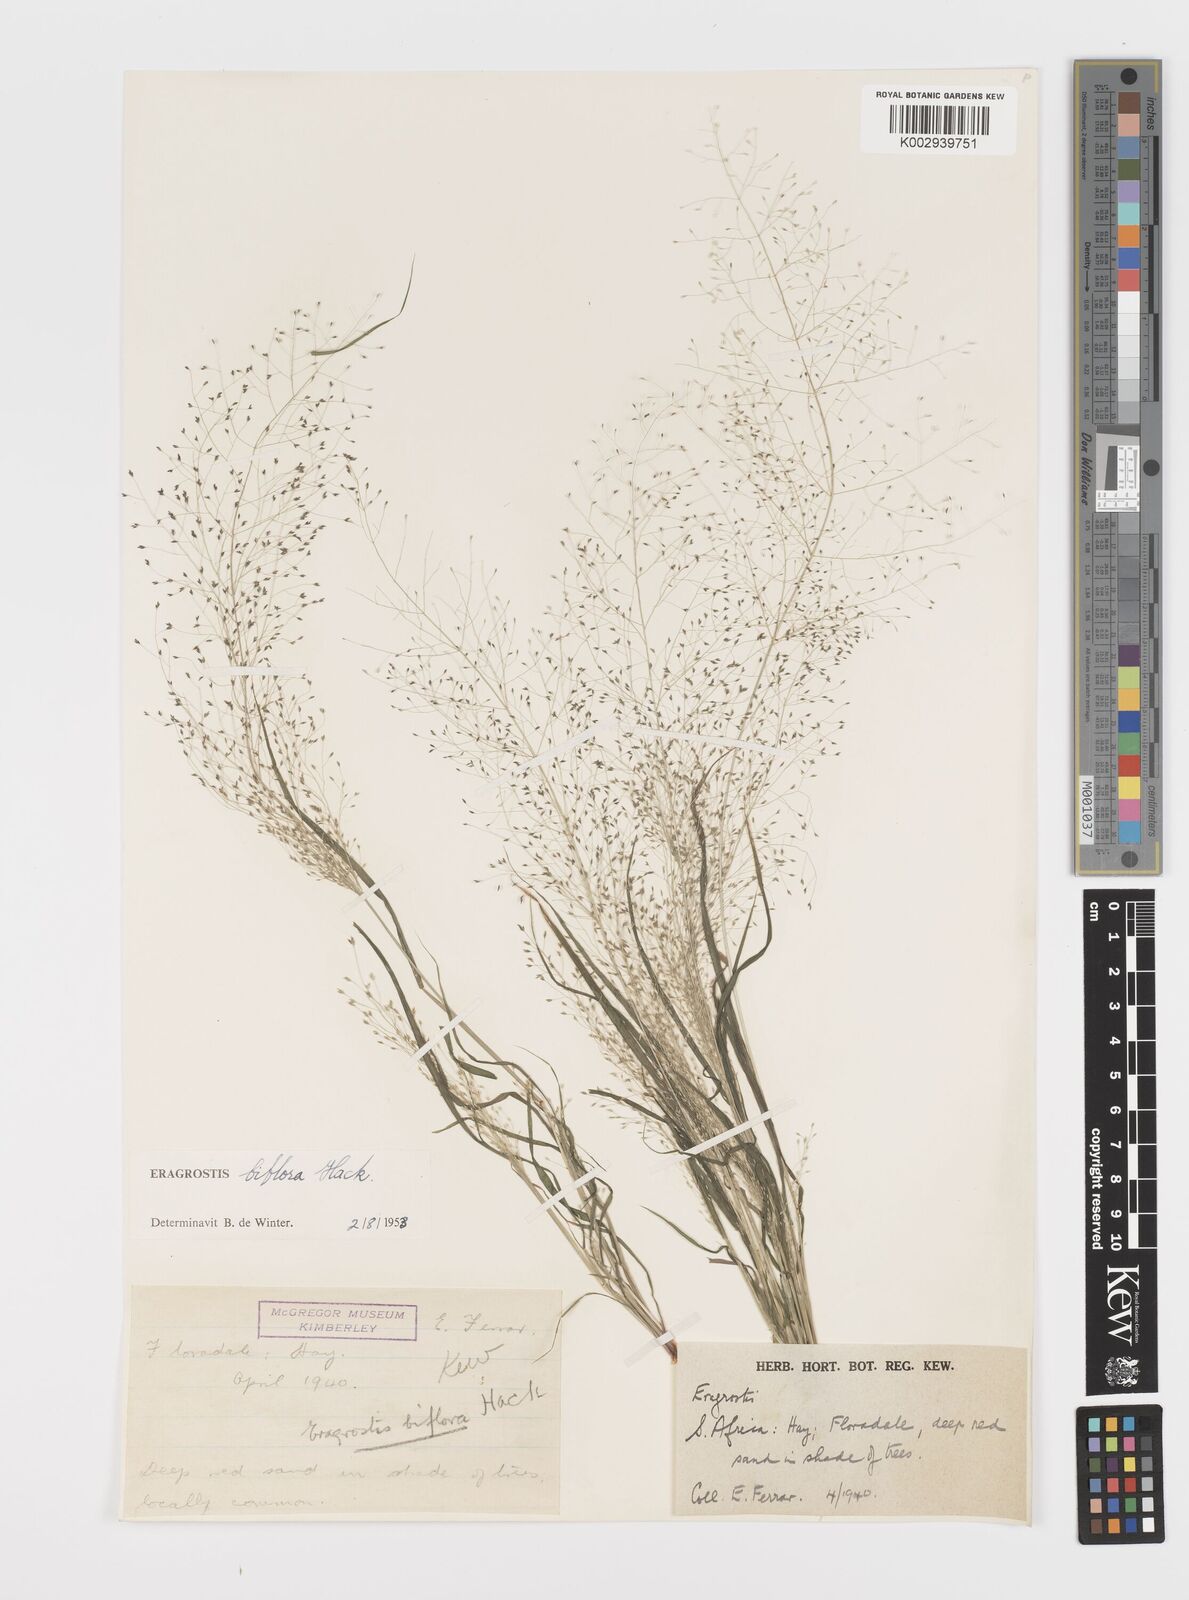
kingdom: Plantae
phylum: Tracheophyta
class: Liliopsida
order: Poales
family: Poaceae
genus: Eragrostis
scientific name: Eragrostis biflora
